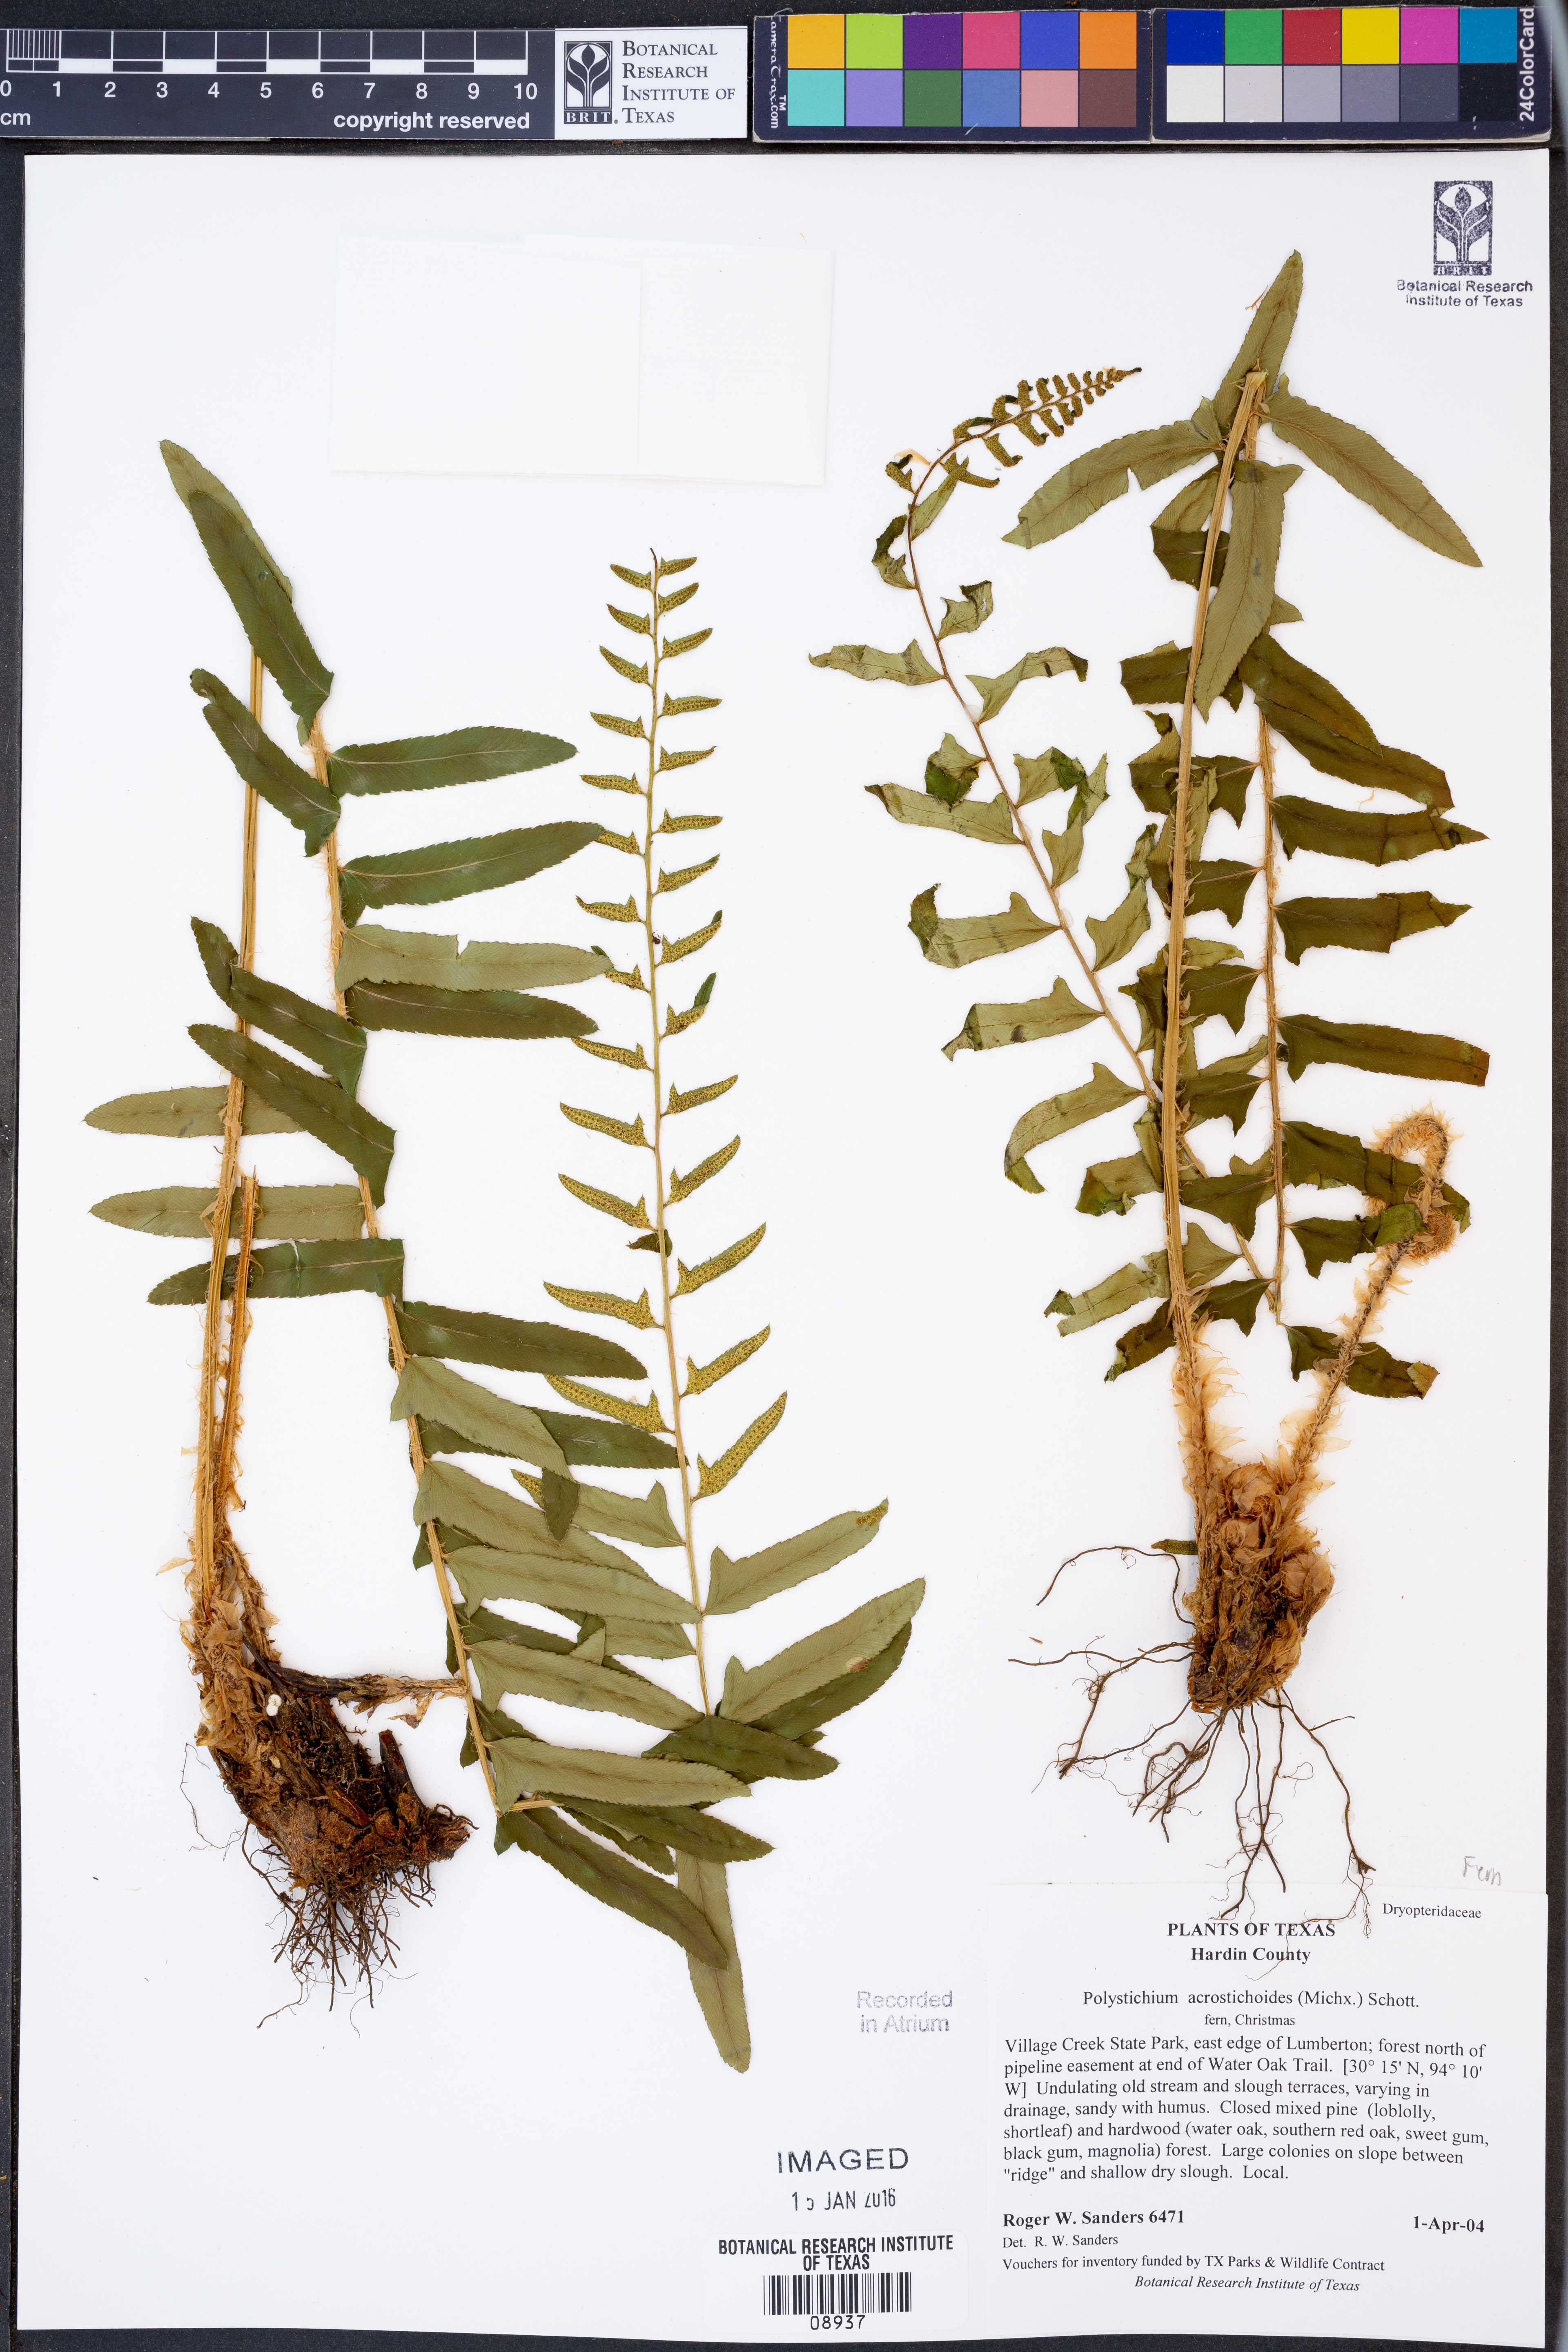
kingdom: Plantae
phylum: Tracheophyta
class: Polypodiopsida
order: Polypodiales
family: Dryopteridaceae
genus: Polystichum
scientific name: Polystichum acrostichoides
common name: Christmas fern
